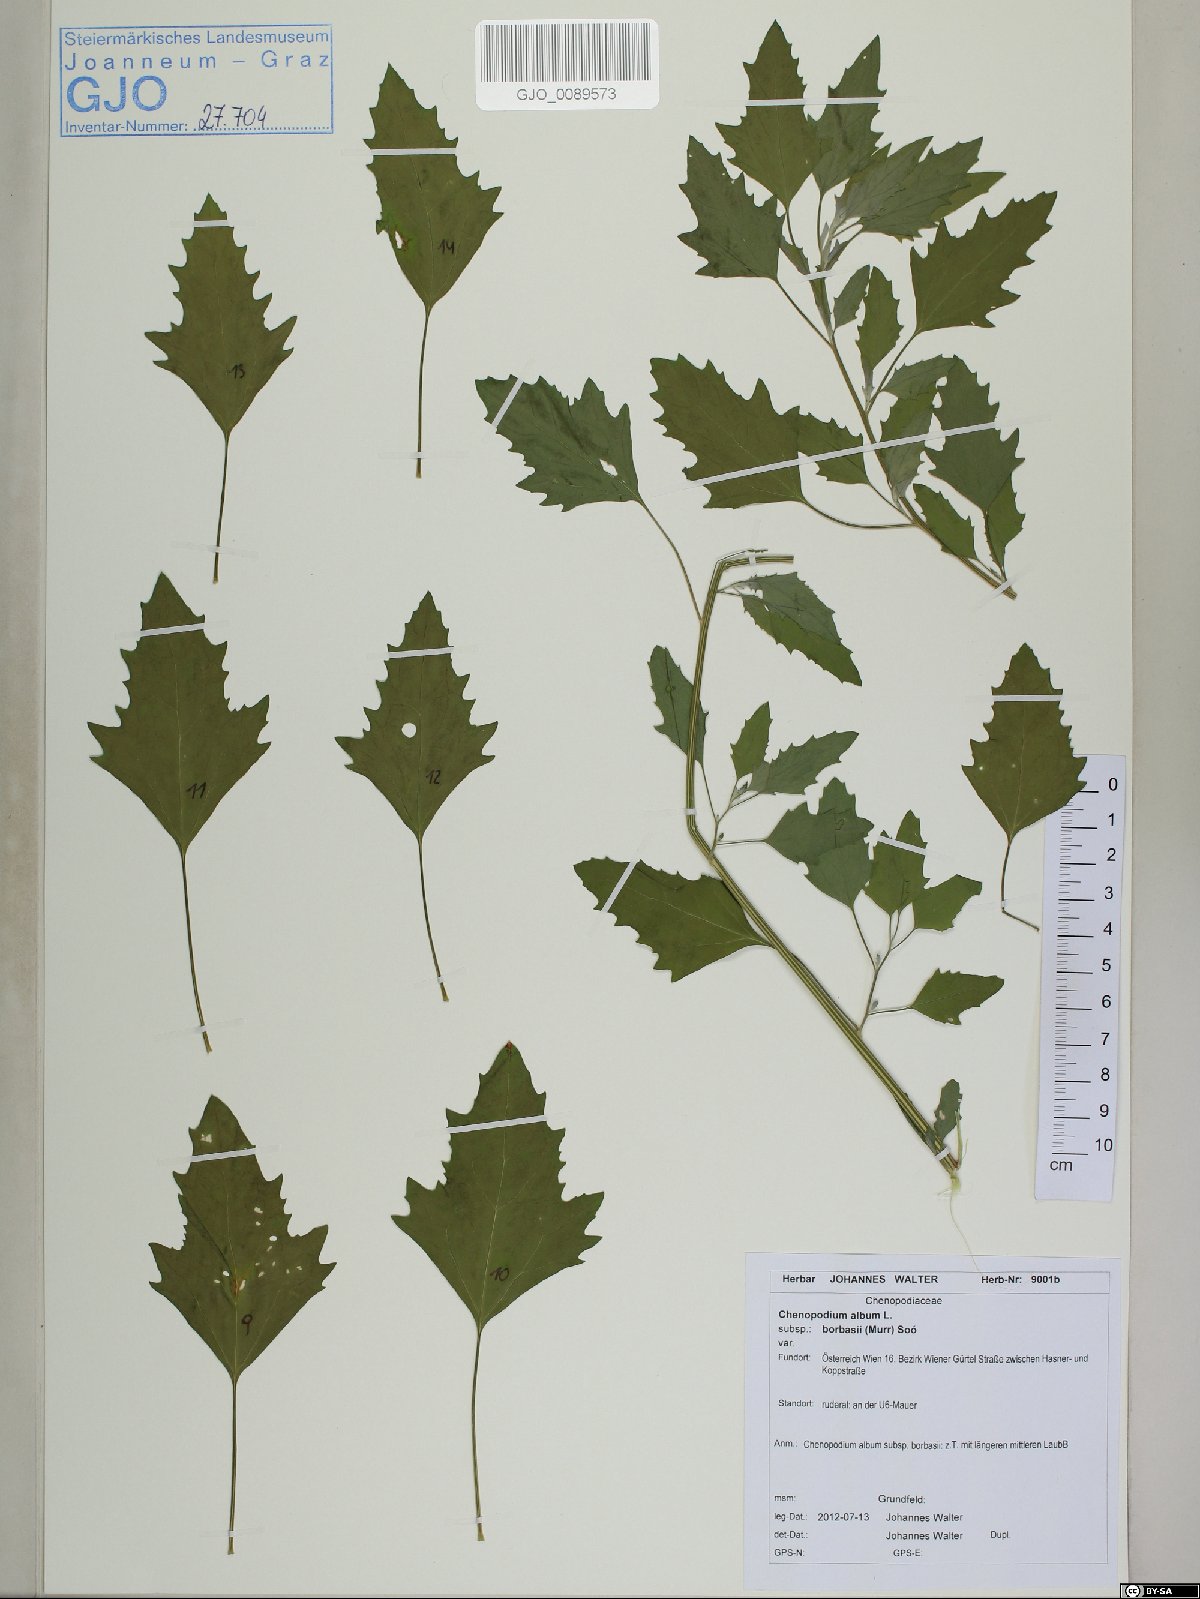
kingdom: Plantae
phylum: Tracheophyta
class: Magnoliopsida
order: Caryophyllales
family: Amaranthaceae
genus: Chenopodium
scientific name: Chenopodium borbasii
